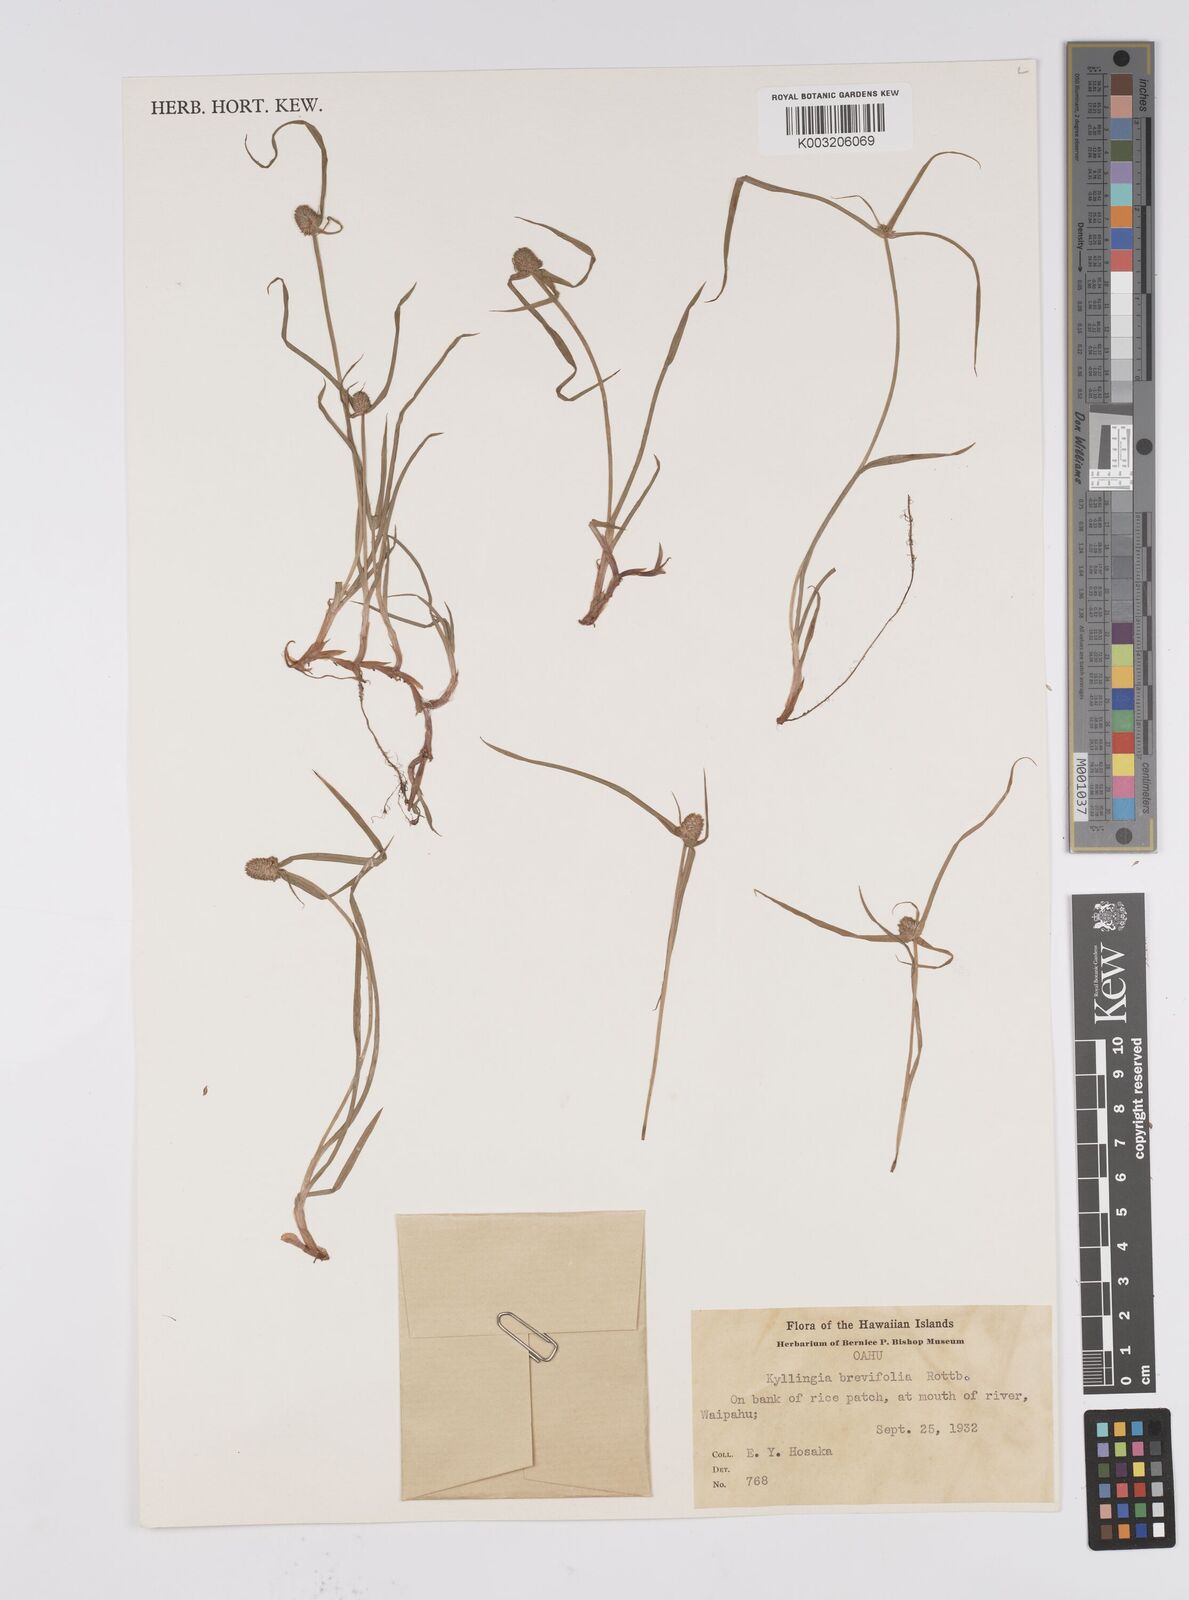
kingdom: Plantae
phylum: Tracheophyta
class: Liliopsida
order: Poales
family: Cyperaceae
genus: Cyperus
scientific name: Cyperus brevifolius
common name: Globe kyllinga
